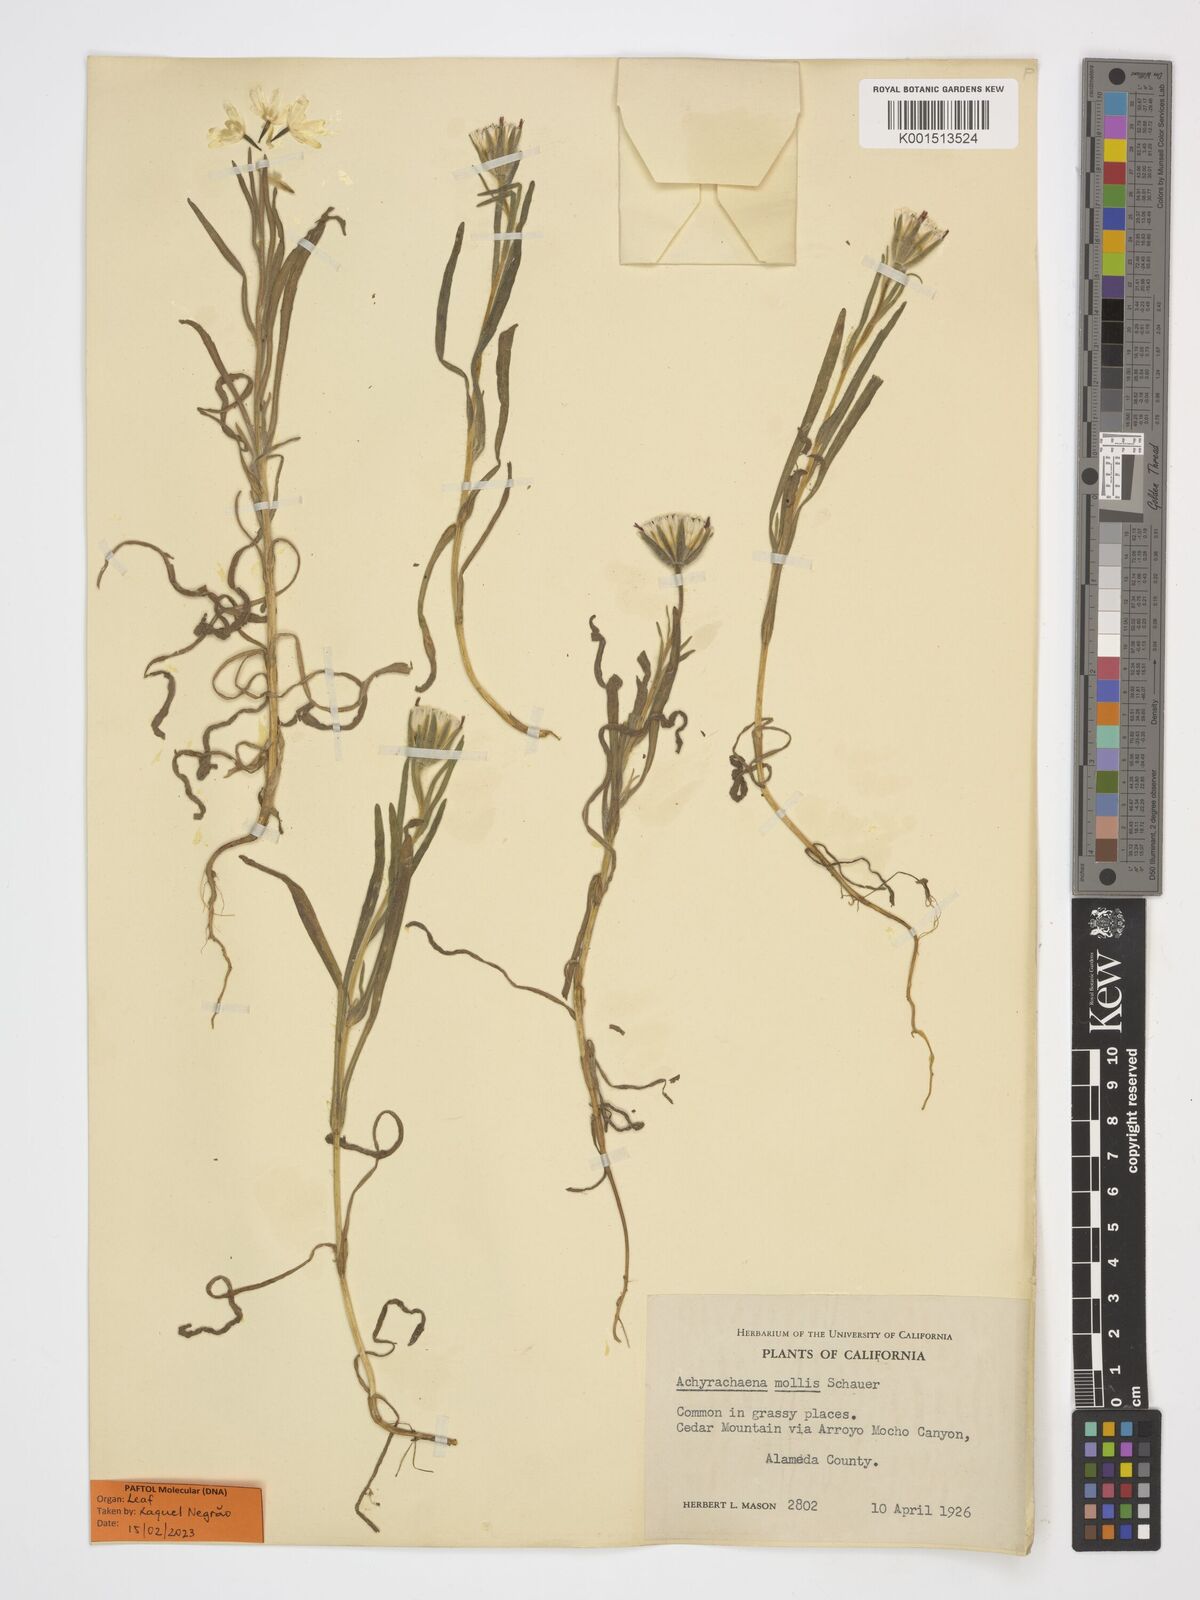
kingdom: Plantae
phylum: Tracheophyta
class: Magnoliopsida
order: Asterales
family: Asteraceae
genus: Achyrachaena
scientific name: Achyrachaena mollis
